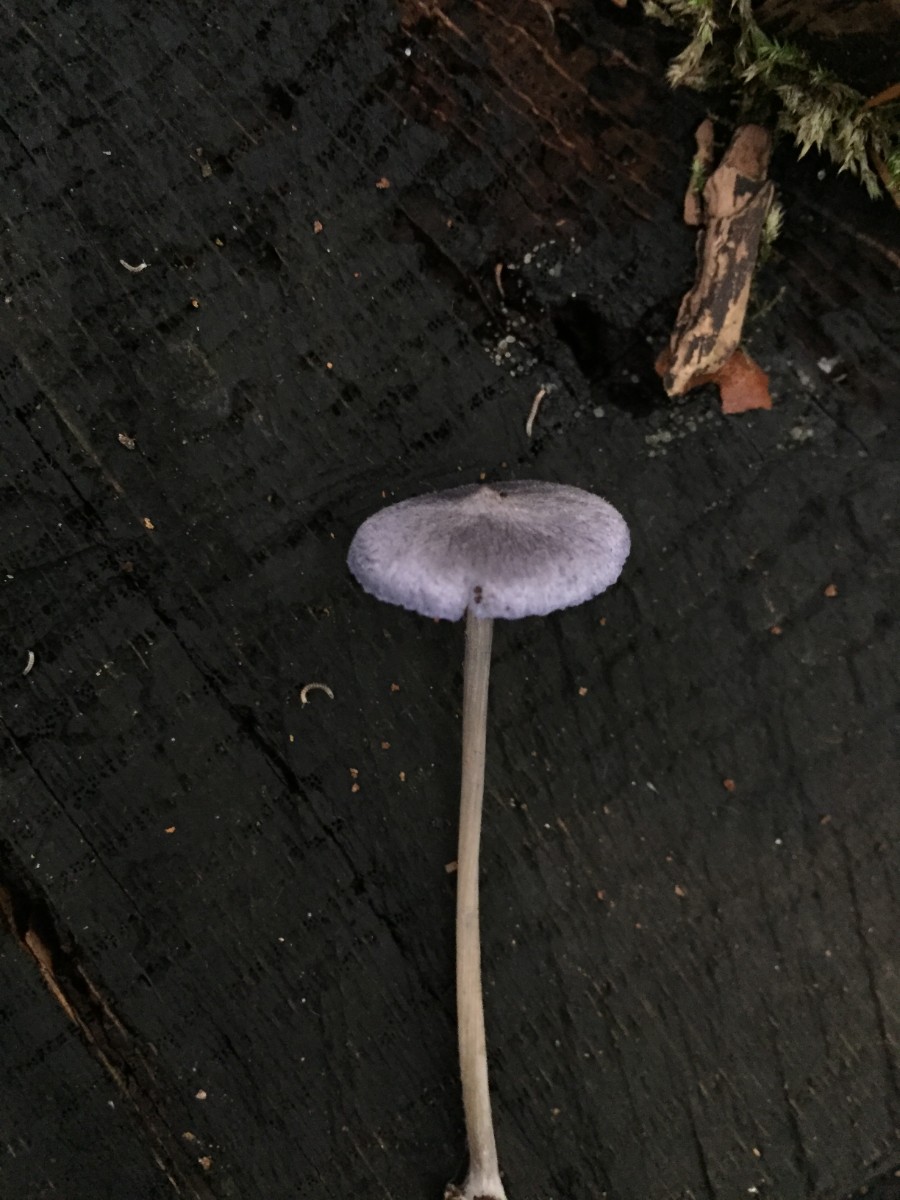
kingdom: Fungi
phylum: Basidiomycota
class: Agaricomycetes
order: Agaricales
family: Entolomataceae
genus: Entoloma
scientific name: Entoloma euchroum
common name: smuk rødblad
